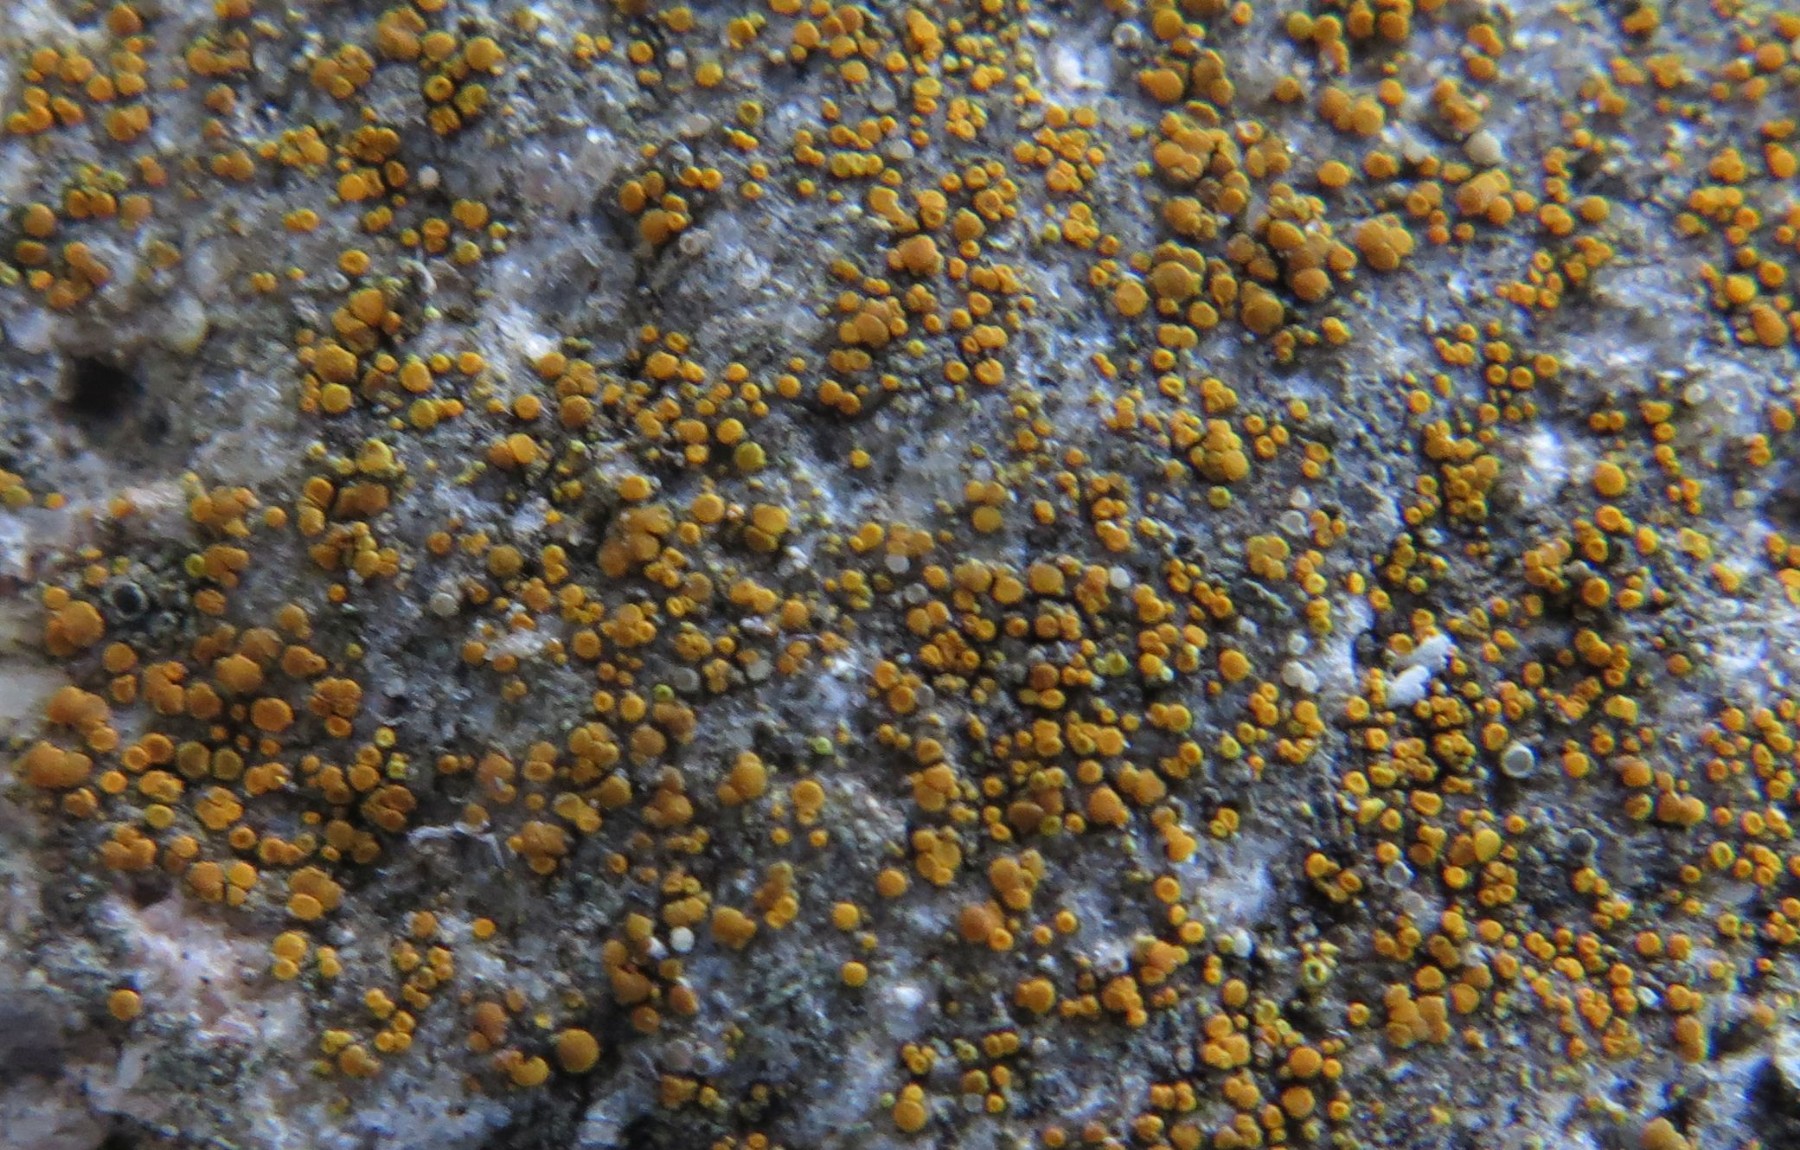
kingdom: Fungi
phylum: Ascomycota
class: Lecanoromycetes
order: Teloschistales
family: Teloschistaceae
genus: Athallia
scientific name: Athallia holocarpa
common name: liden orangelav
